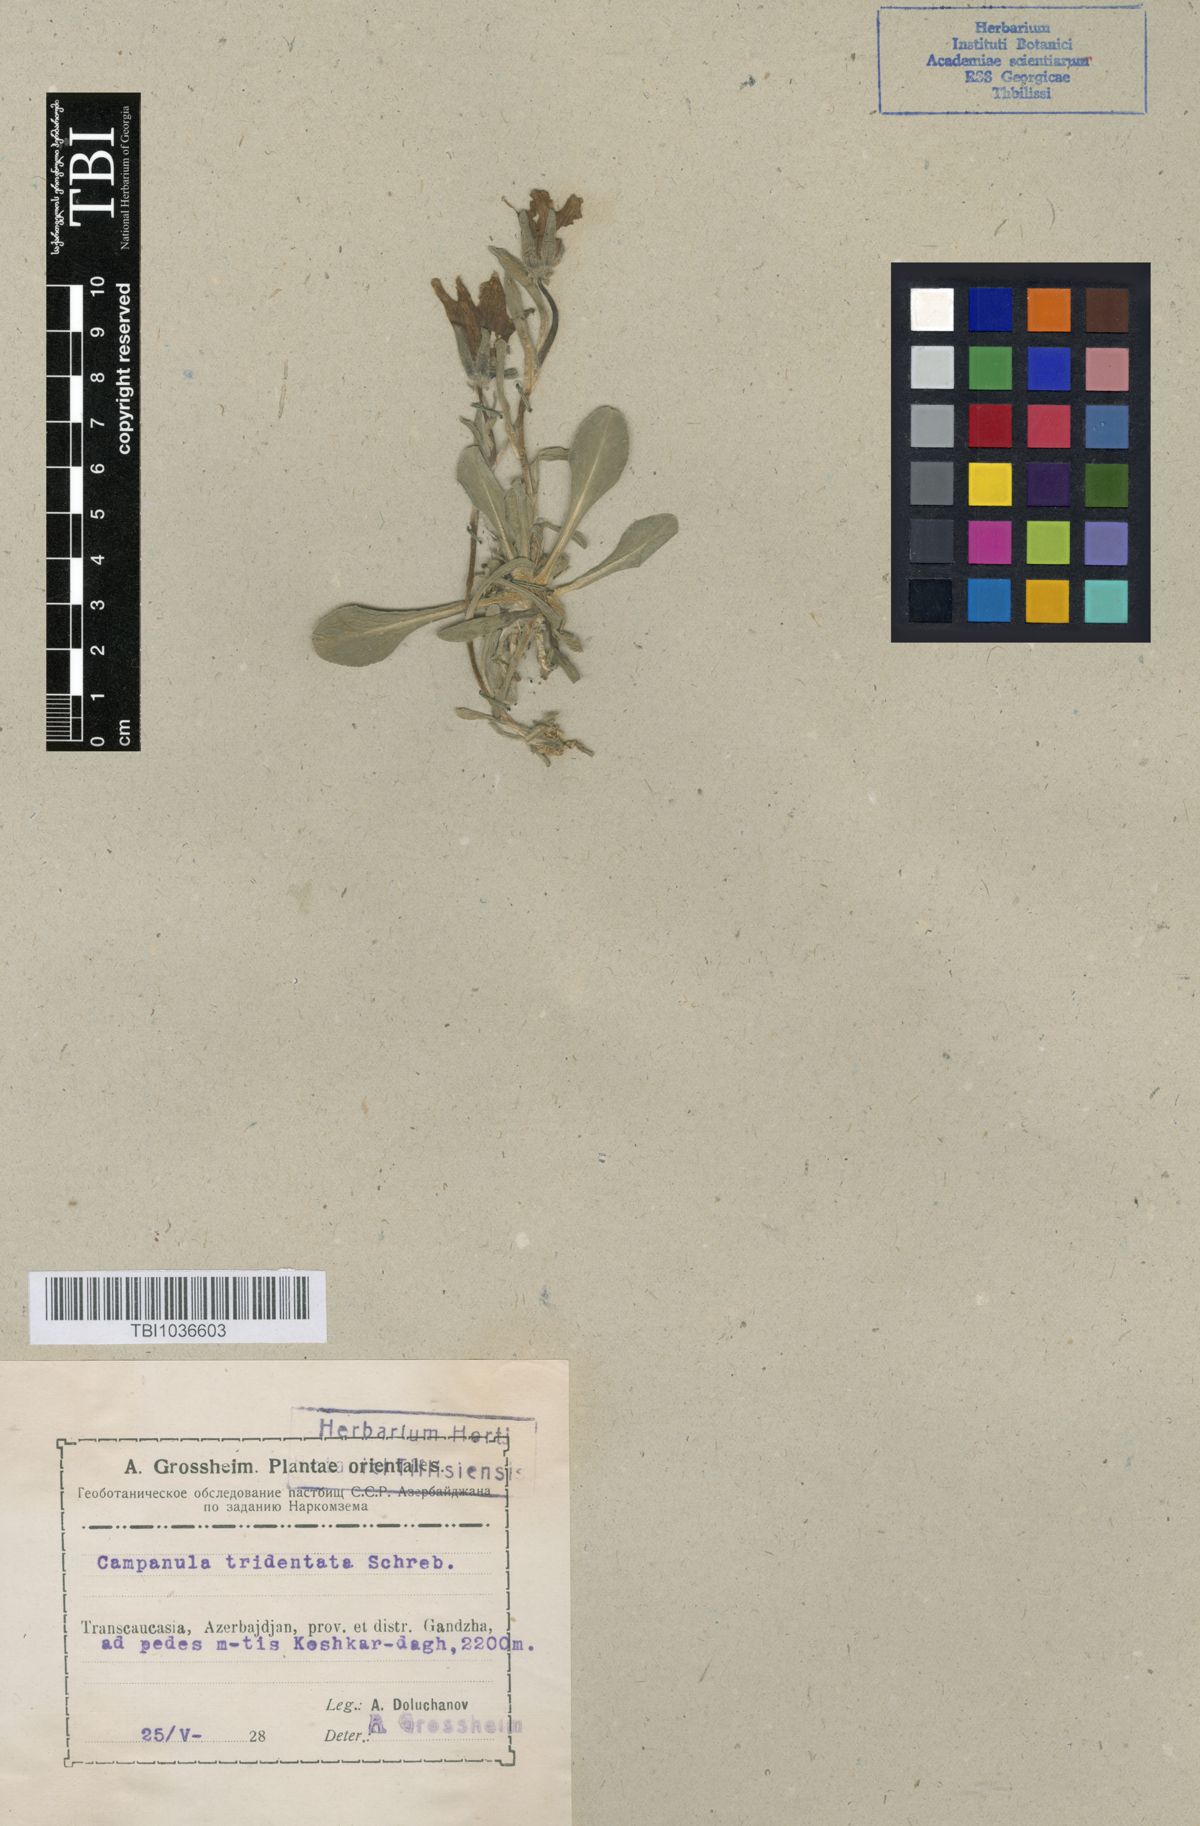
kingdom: Plantae
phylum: Tracheophyta
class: Magnoliopsida
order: Asterales
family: Campanulaceae
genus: Campanula
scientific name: Campanula tridentata
